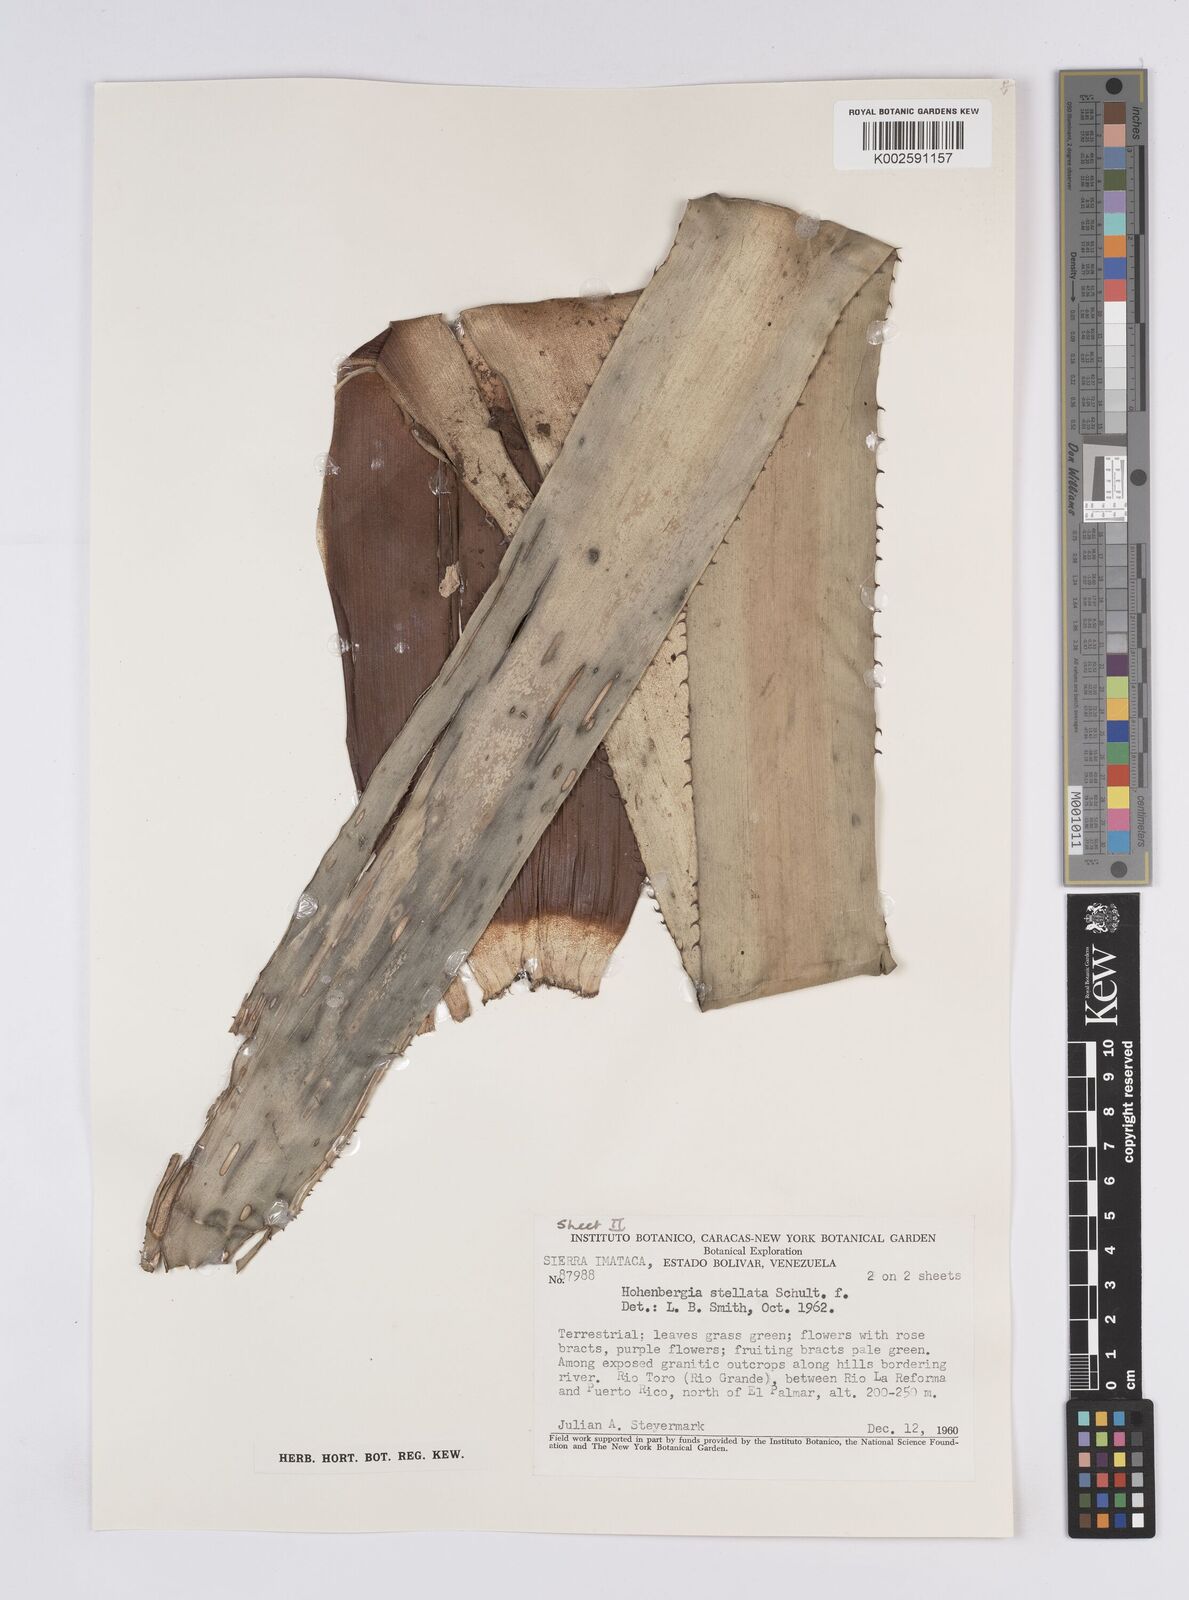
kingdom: Plantae
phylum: Tracheophyta
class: Liliopsida
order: Poales
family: Bromeliaceae
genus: Hohenbergia
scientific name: Hohenbergia stellata
